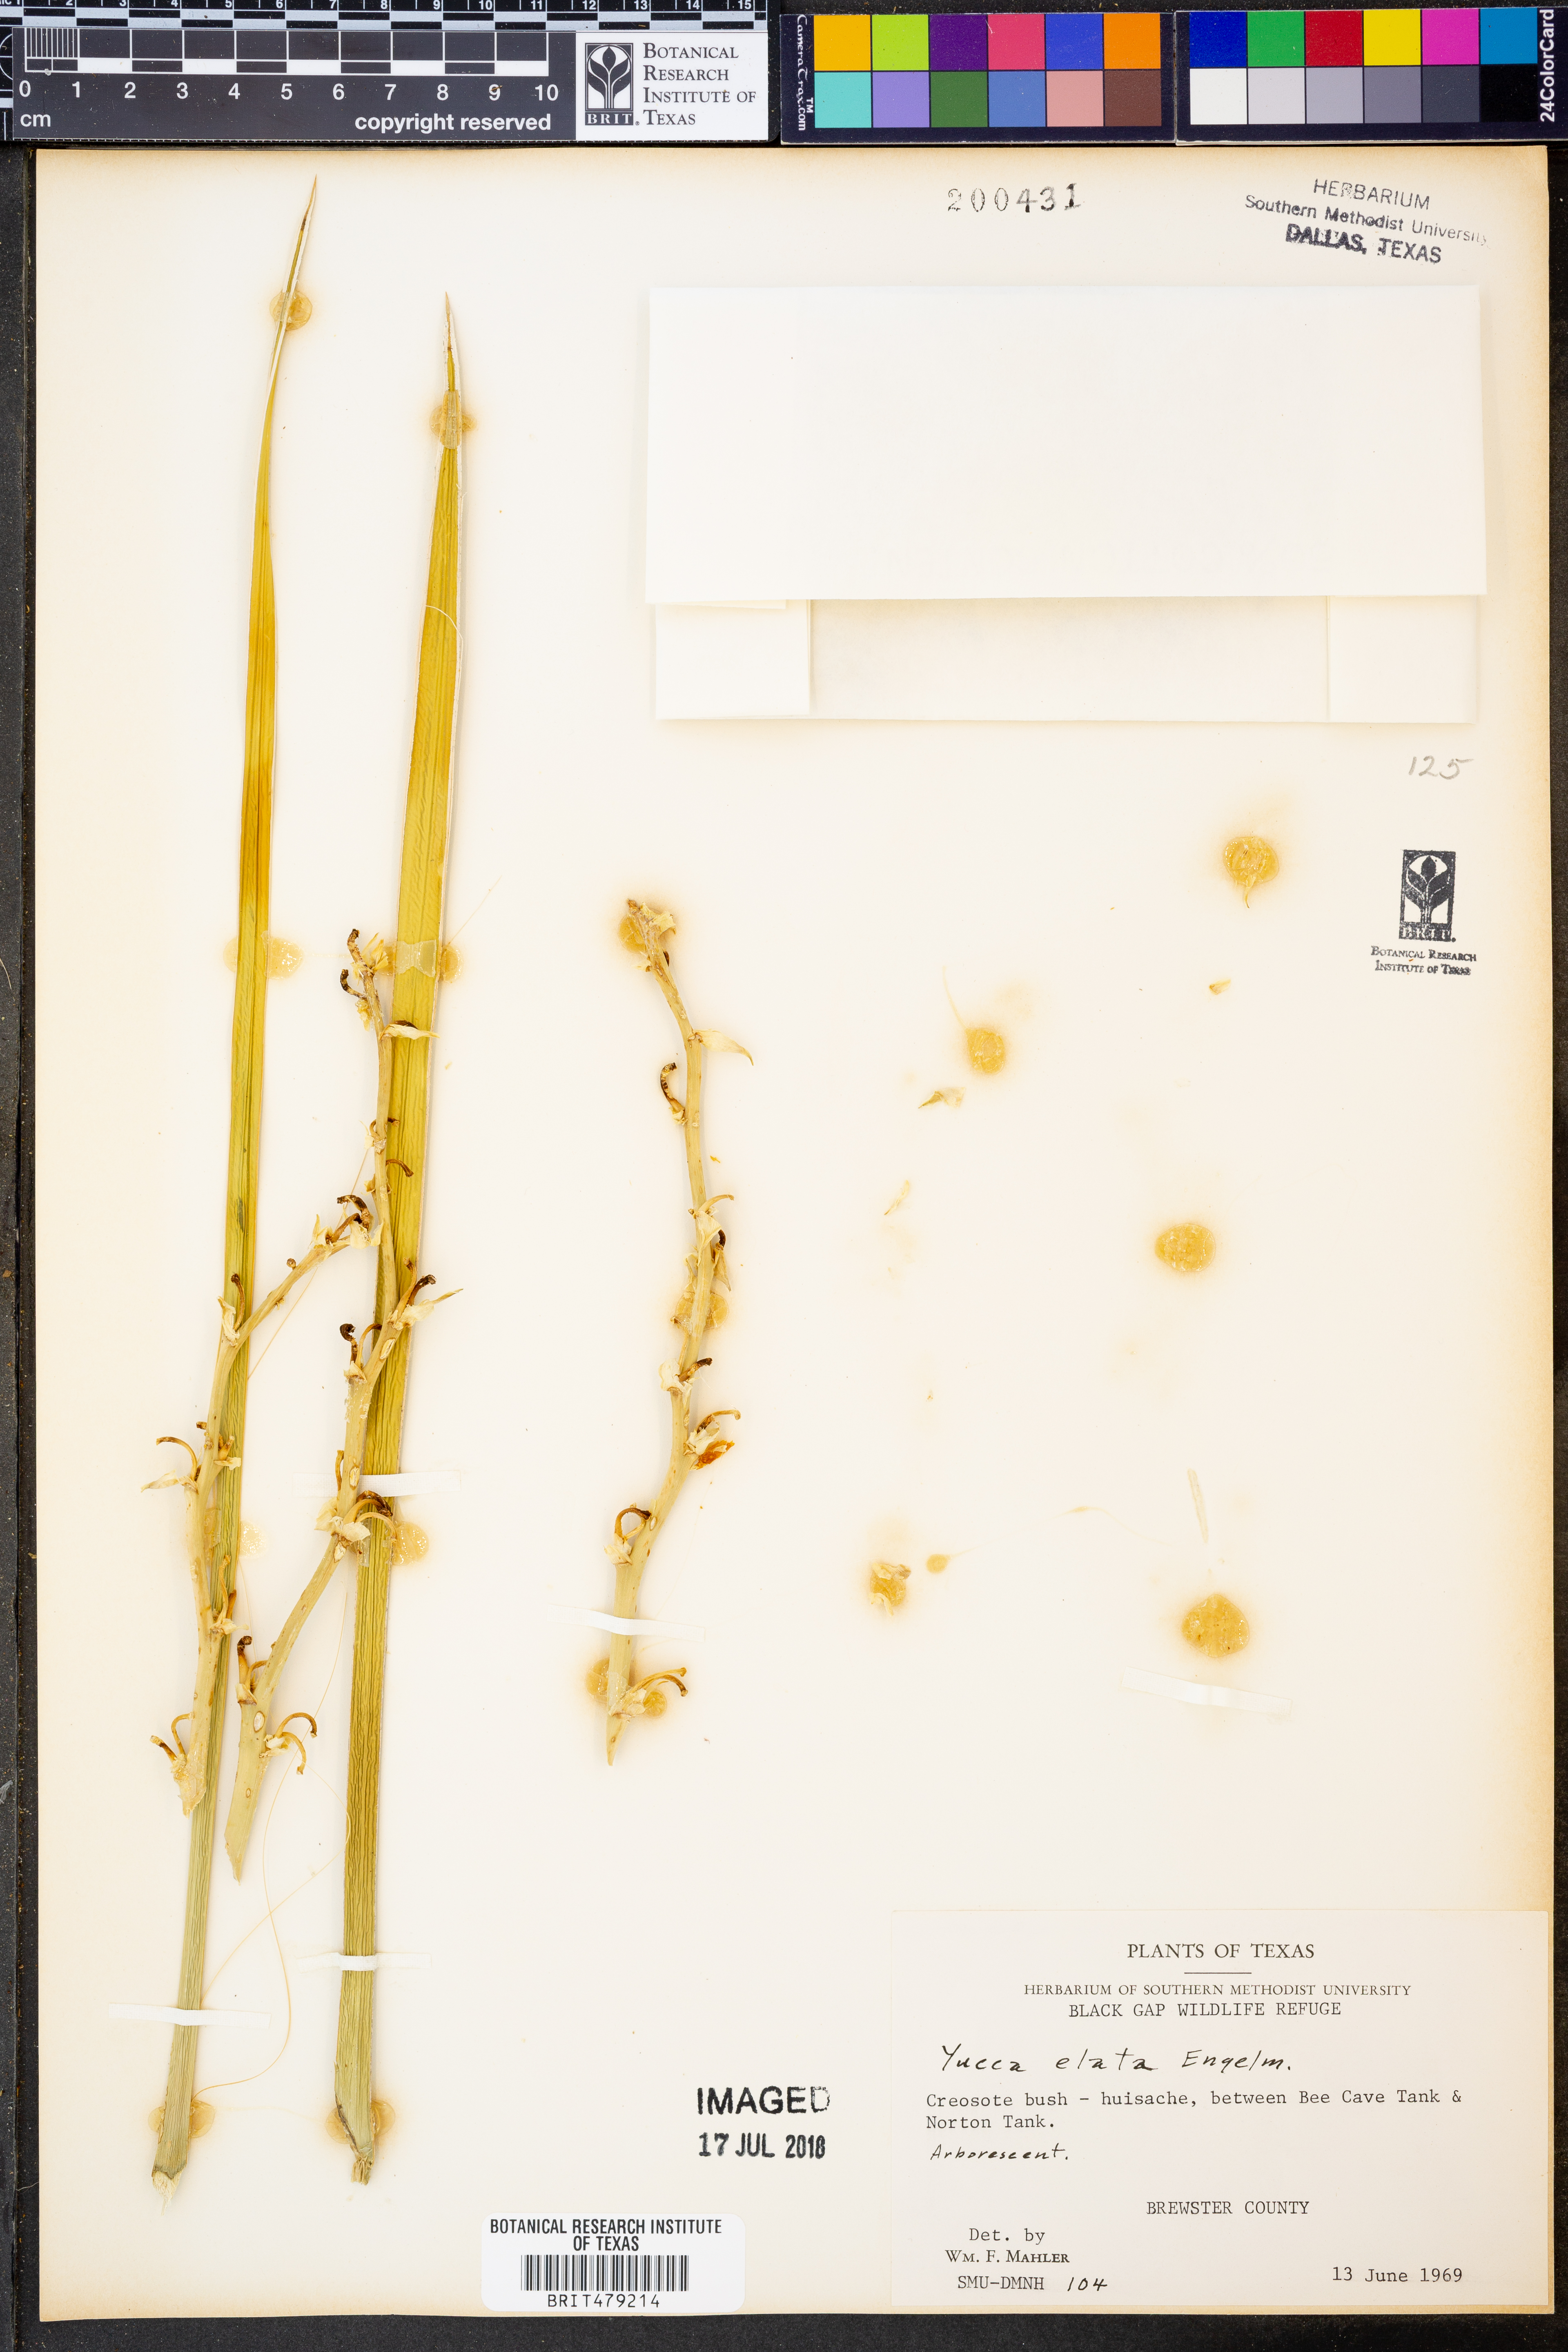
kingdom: Plantae
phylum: Tracheophyta
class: Liliopsida
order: Asparagales
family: Asparagaceae
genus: Yucca
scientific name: Yucca elata
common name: Palmella
